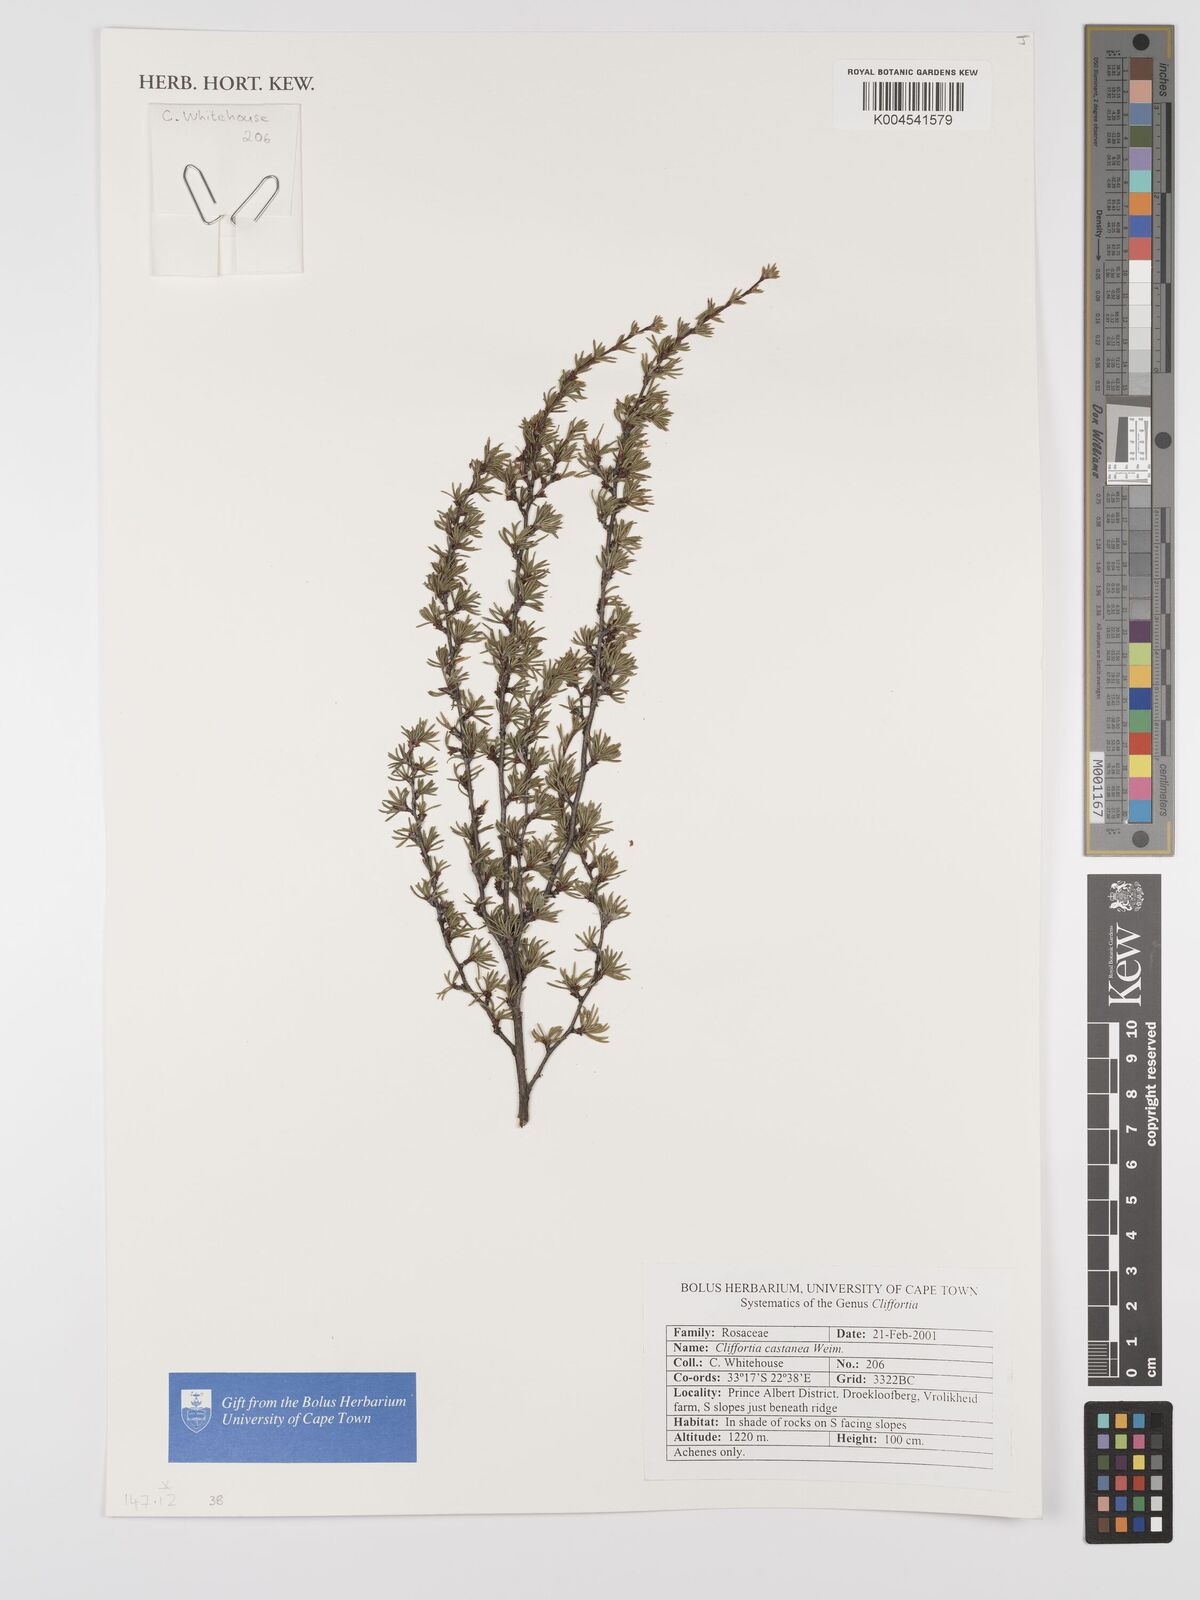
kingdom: Plantae
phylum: Tracheophyta
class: Magnoliopsida
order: Rosales
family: Rosaceae
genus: Cliffortia
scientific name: Cliffortia castanea
